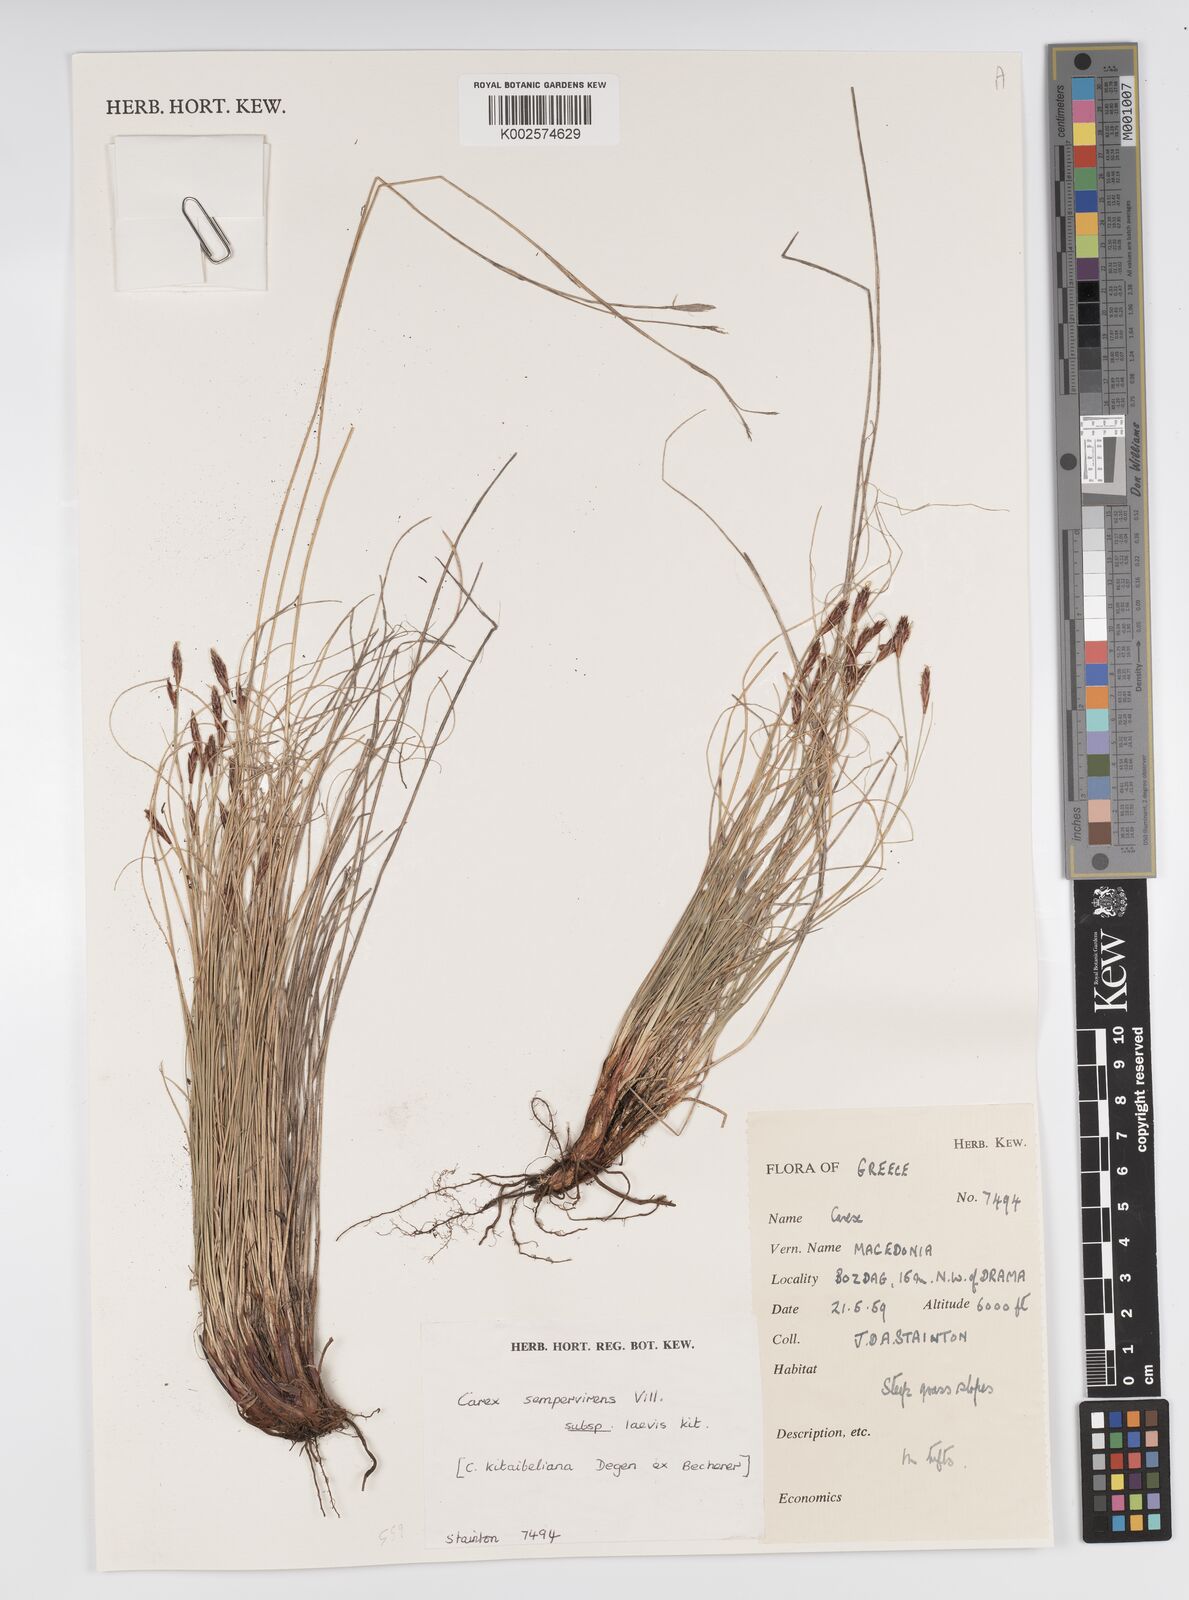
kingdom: Plantae
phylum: Tracheophyta
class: Liliopsida
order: Poales
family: Cyperaceae
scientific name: Cyperaceae
